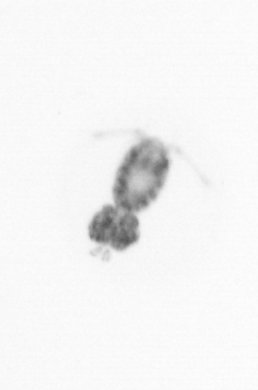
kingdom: Animalia
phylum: Arthropoda
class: Copepoda
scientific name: Copepoda
